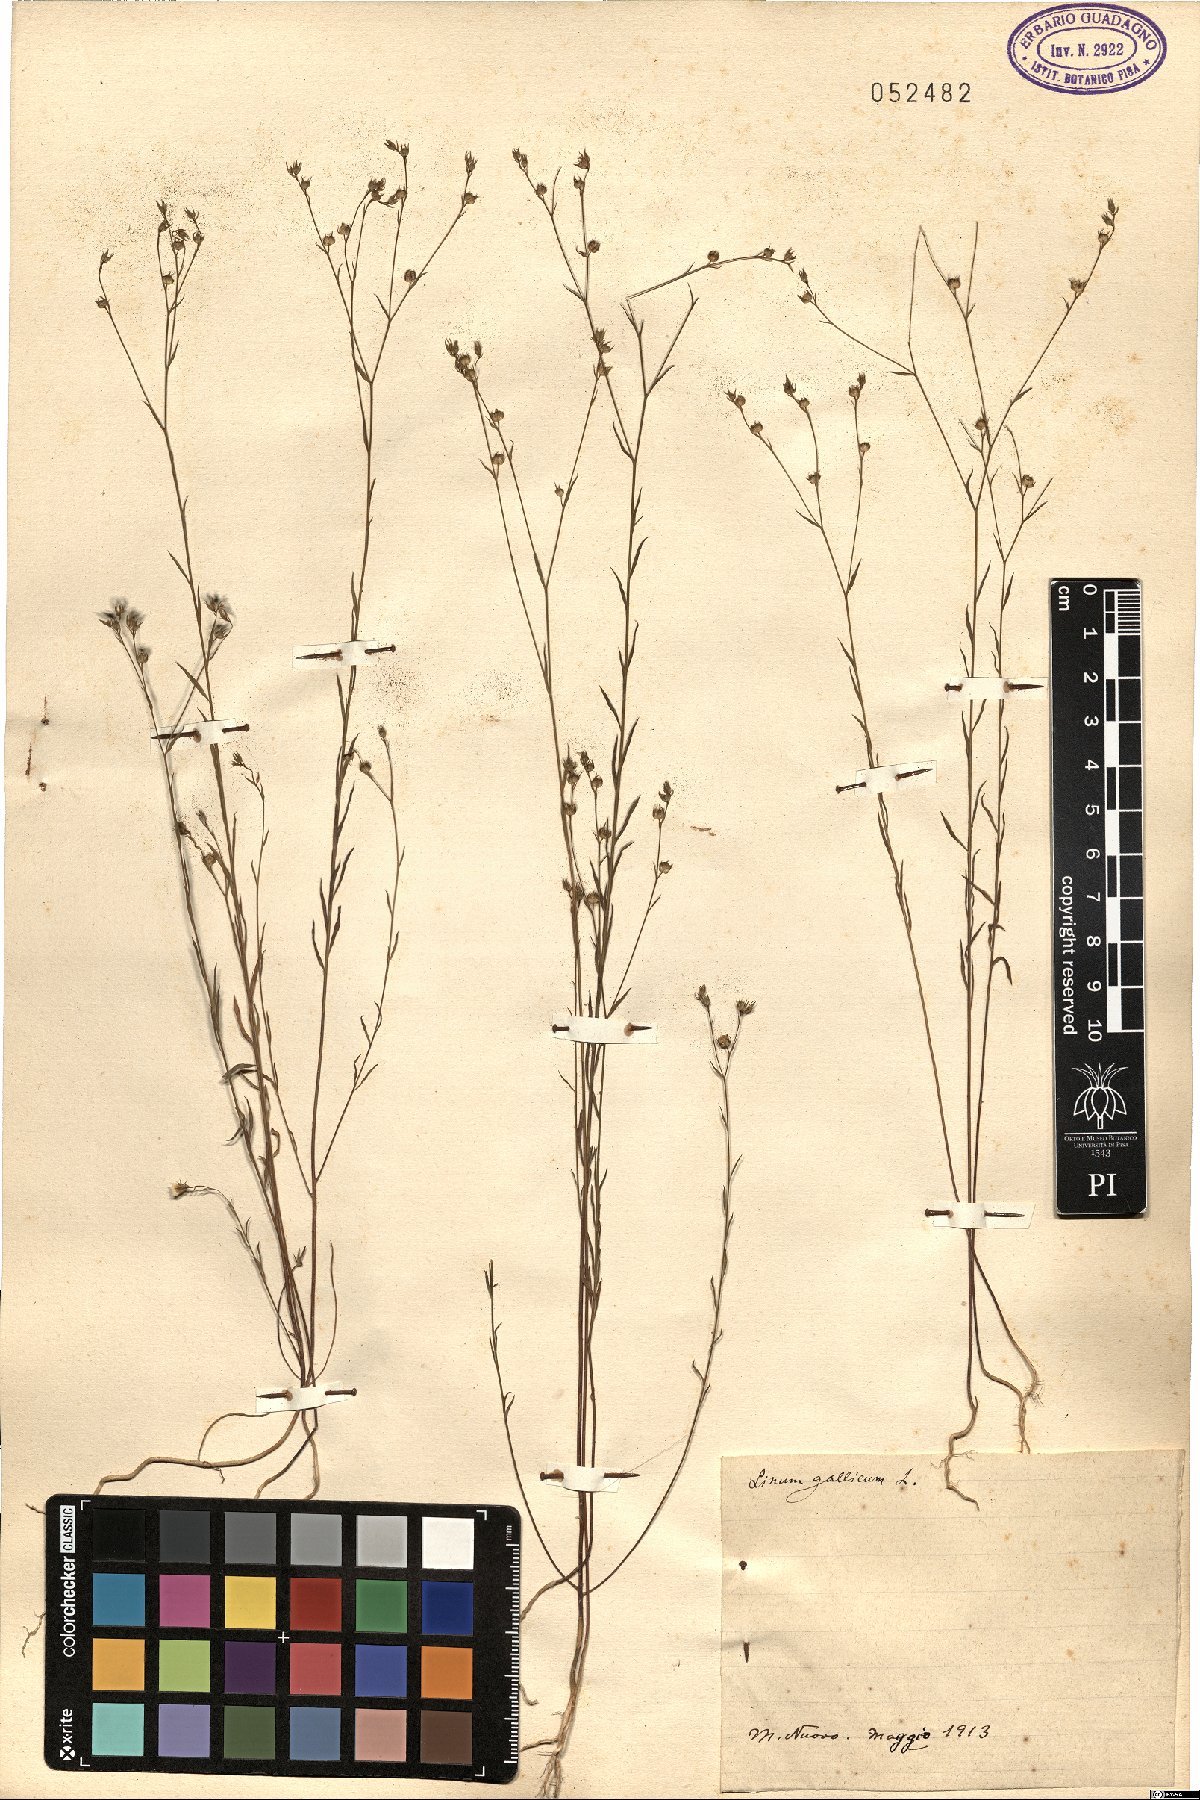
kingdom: Plantae
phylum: Tracheophyta
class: Magnoliopsida
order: Malpighiales
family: Linaceae
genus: Linum
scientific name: Linum trigynum
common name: French flax
